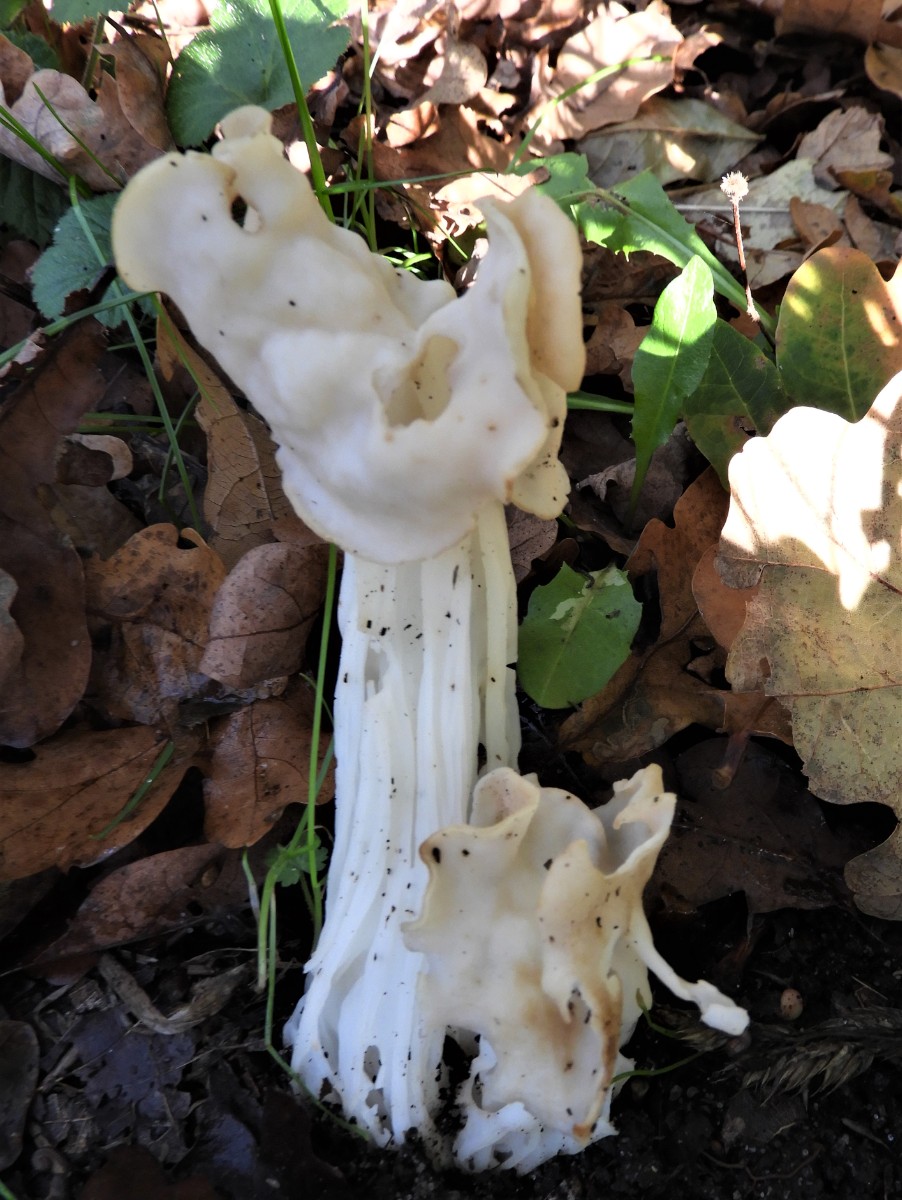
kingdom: Fungi
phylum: Ascomycota
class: Pezizomycetes
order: Pezizales
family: Helvellaceae
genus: Helvella
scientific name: Helvella crispa
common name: kruset foldhat
